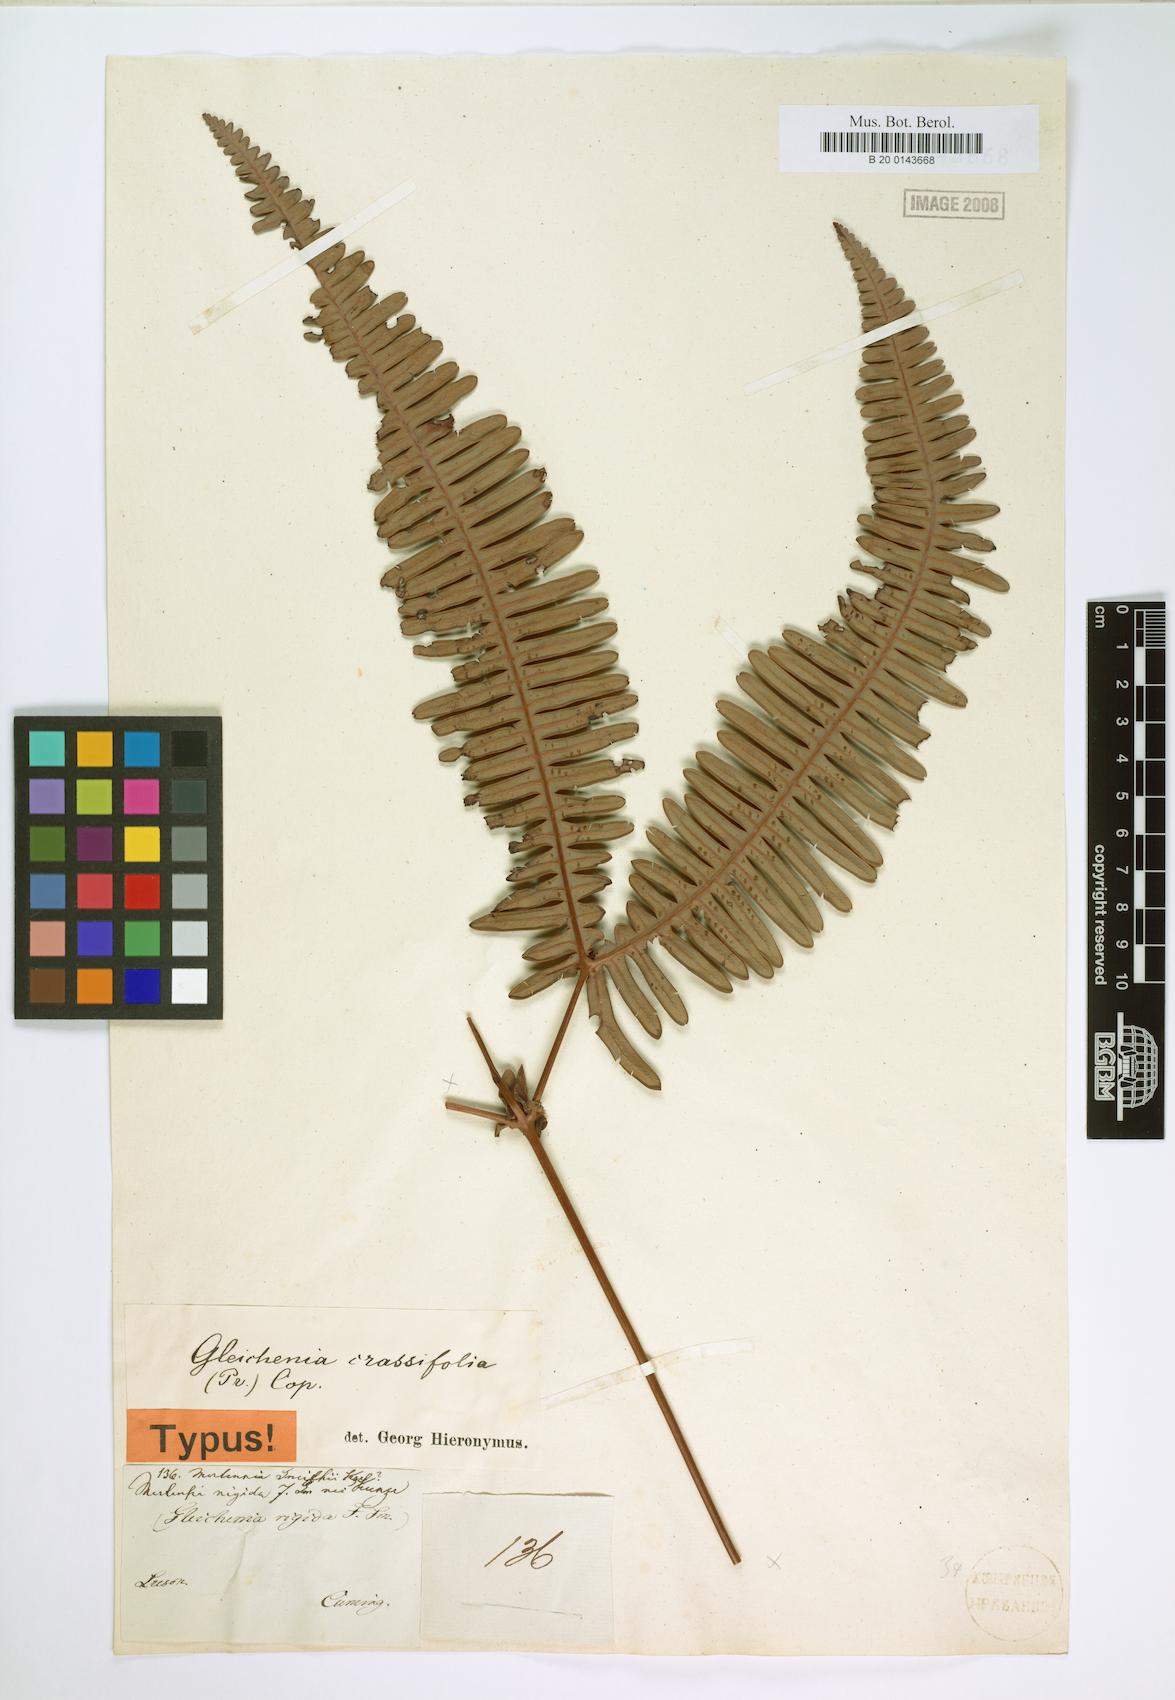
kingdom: Plantae
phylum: Tracheophyta
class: Polypodiopsida
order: Gleicheniales
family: Gleicheniaceae
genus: Dicranopteris
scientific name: Dicranopteris
